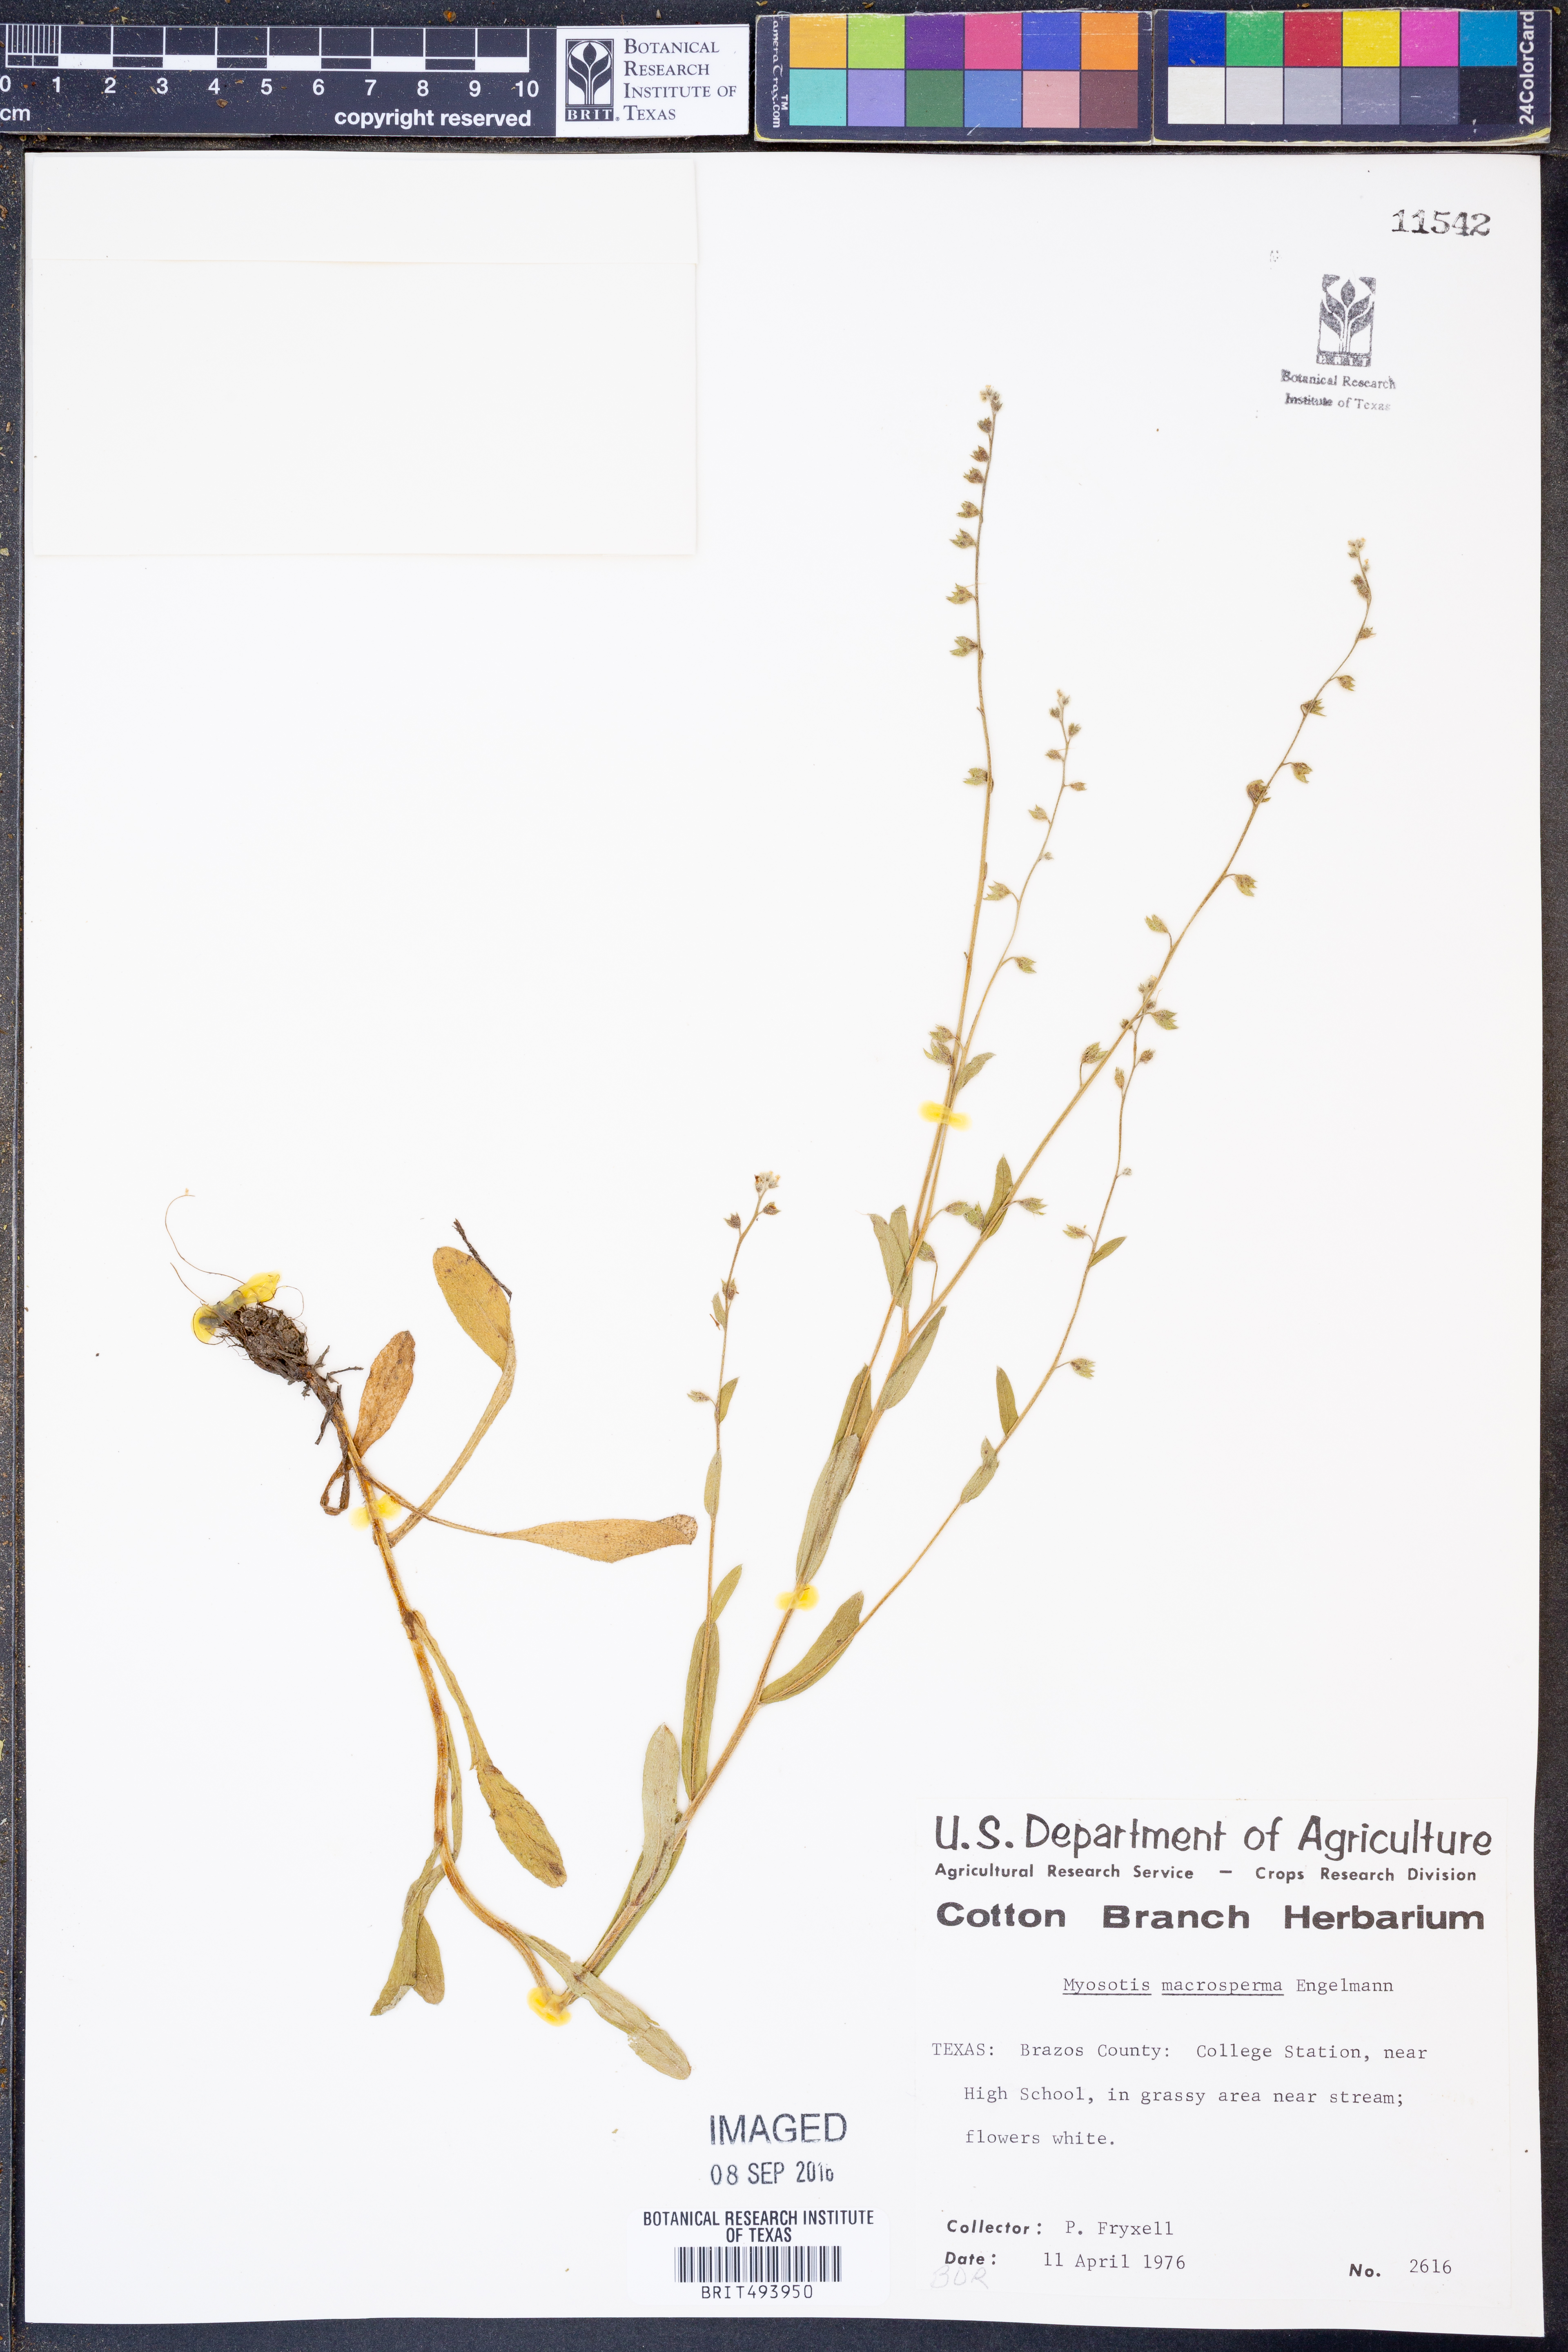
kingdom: Plantae
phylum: Tracheophyta
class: Magnoliopsida
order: Boraginales
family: Boraginaceae
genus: Myosotis
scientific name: Myosotis macrosperma
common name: Large-seed forget-me-not
